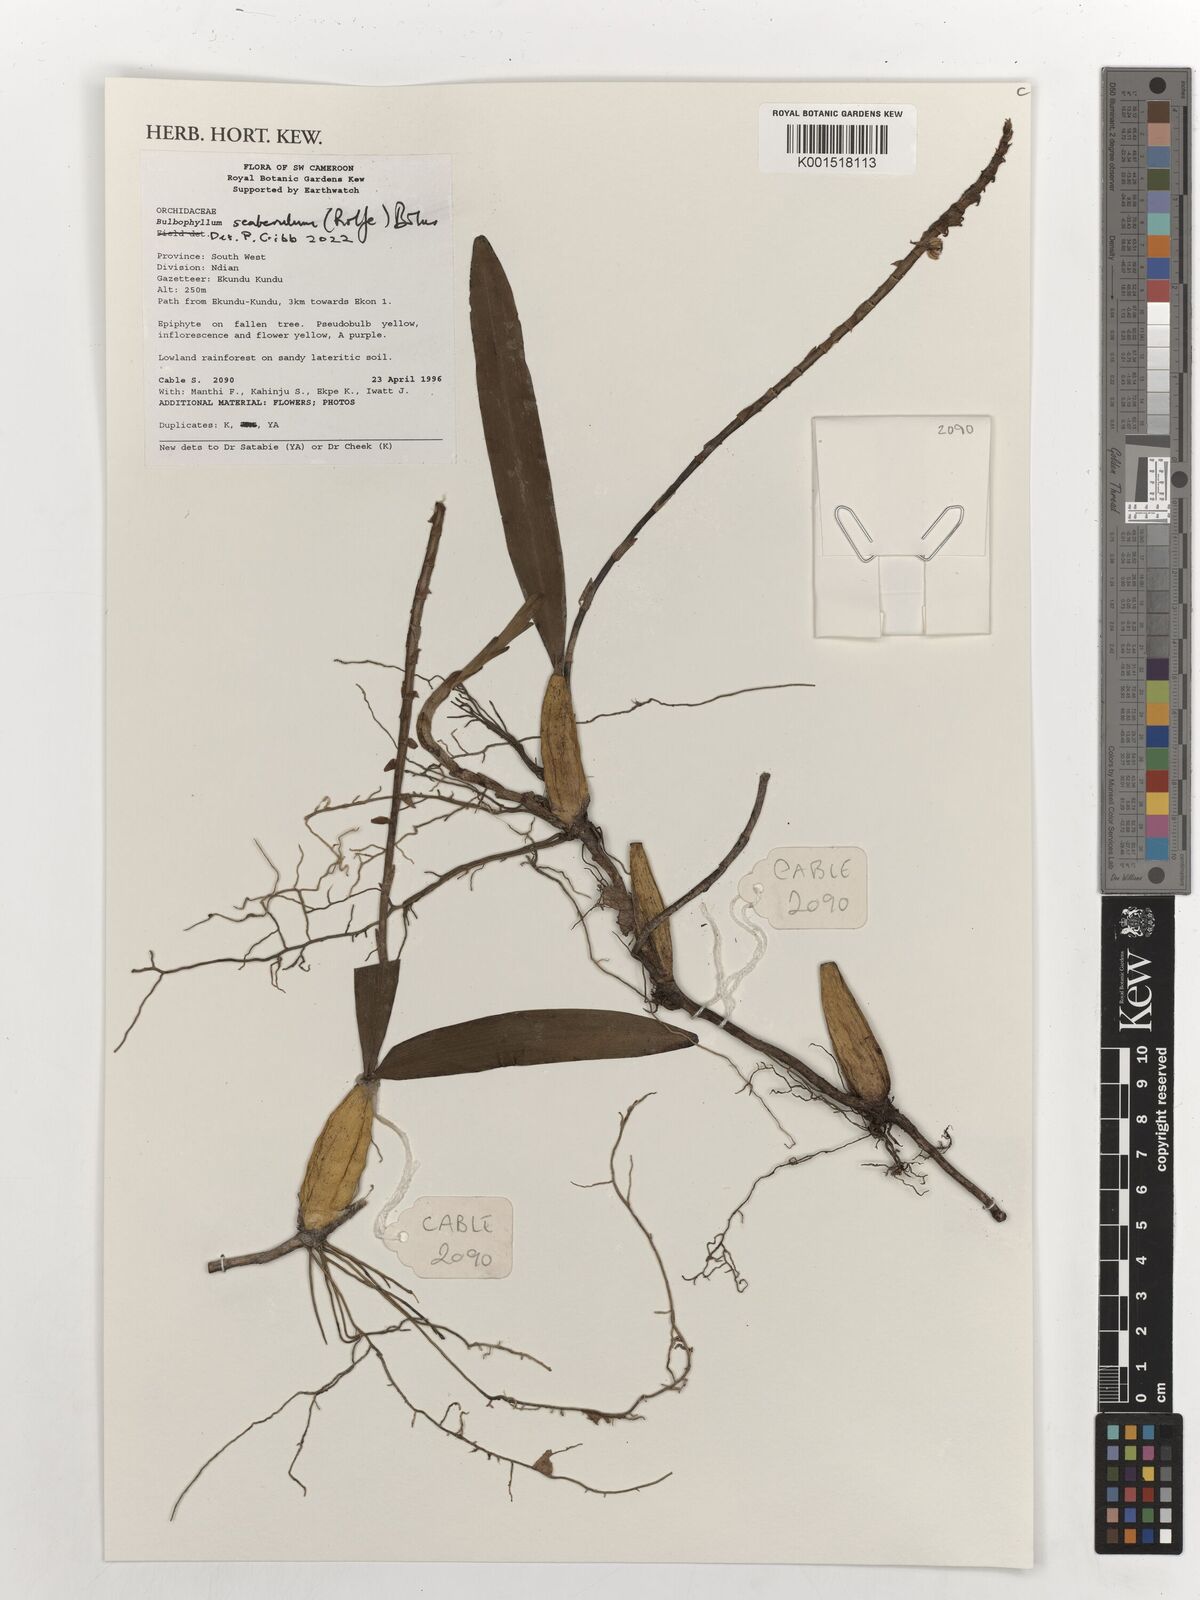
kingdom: Plantae
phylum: Tracheophyta
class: Liliopsida
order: Asparagales
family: Orchidaceae
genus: Bulbophyllum
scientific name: Bulbophyllum seabrense
